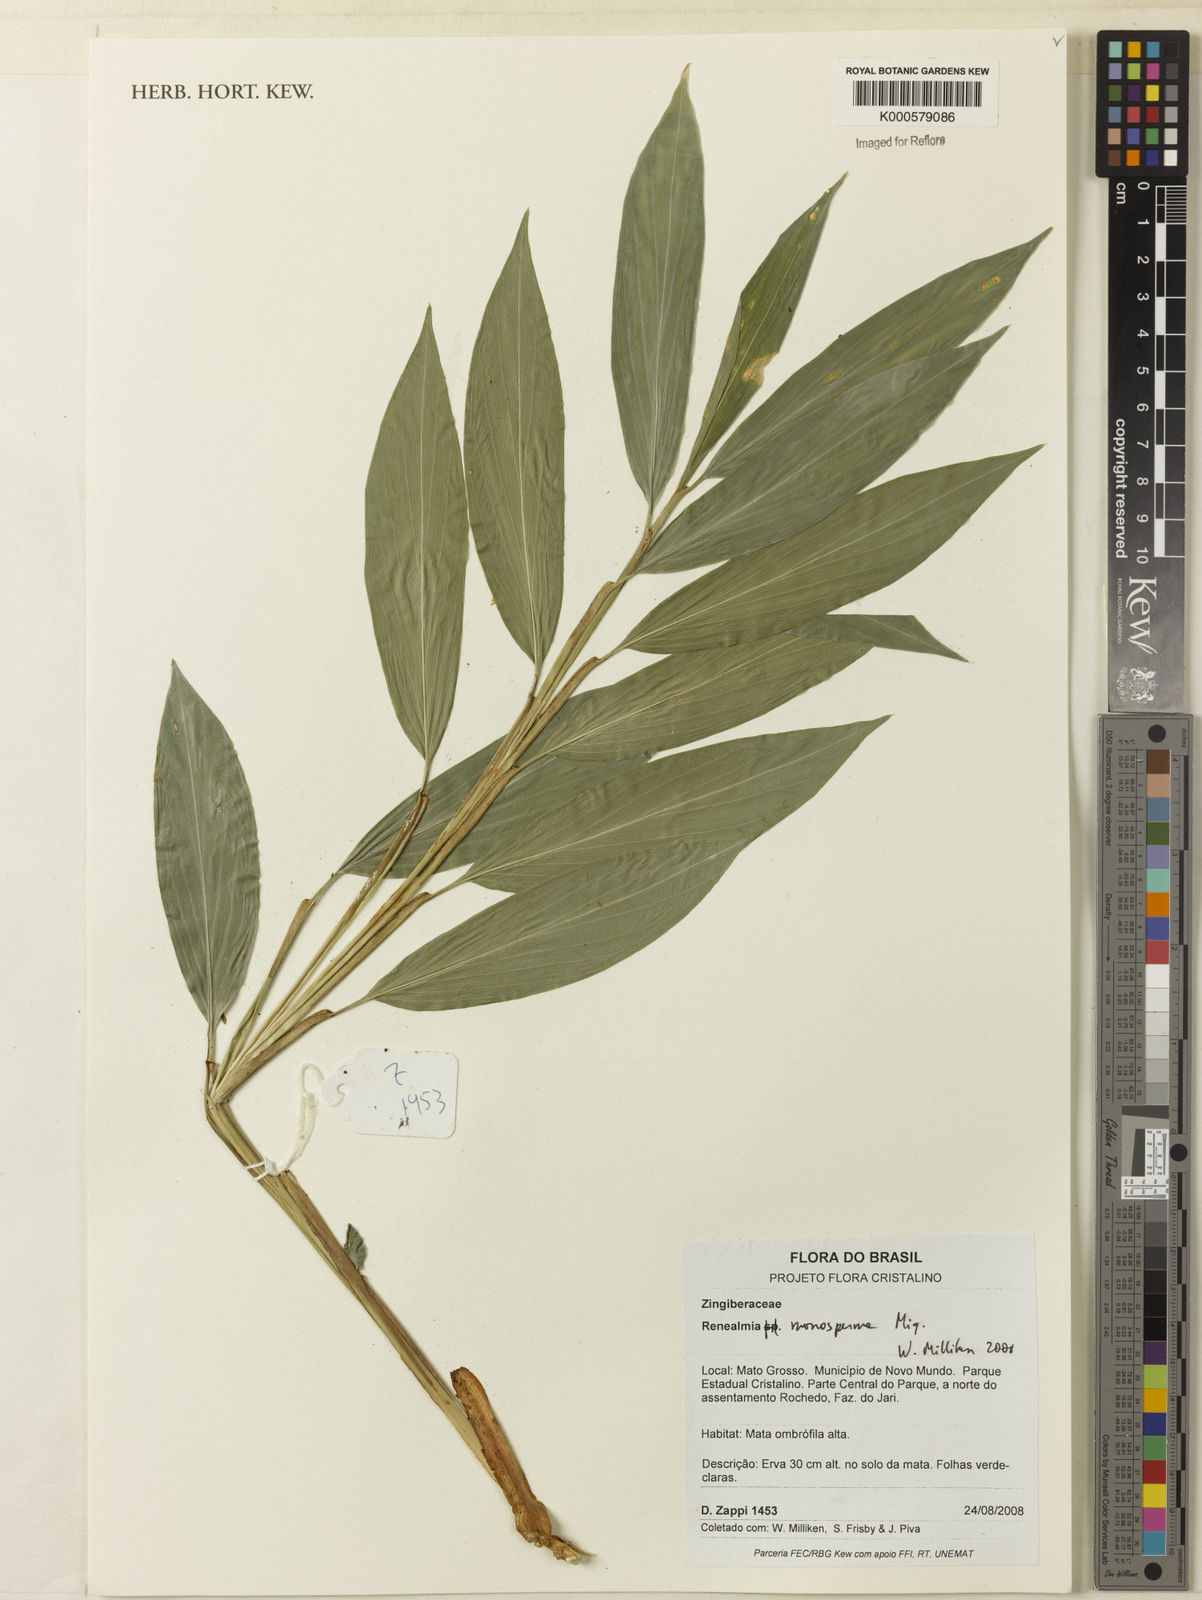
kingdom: Plantae
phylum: Tracheophyta
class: Liliopsida
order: Zingiberales
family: Zingiberaceae
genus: Renealmia
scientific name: Renealmia monosperma
